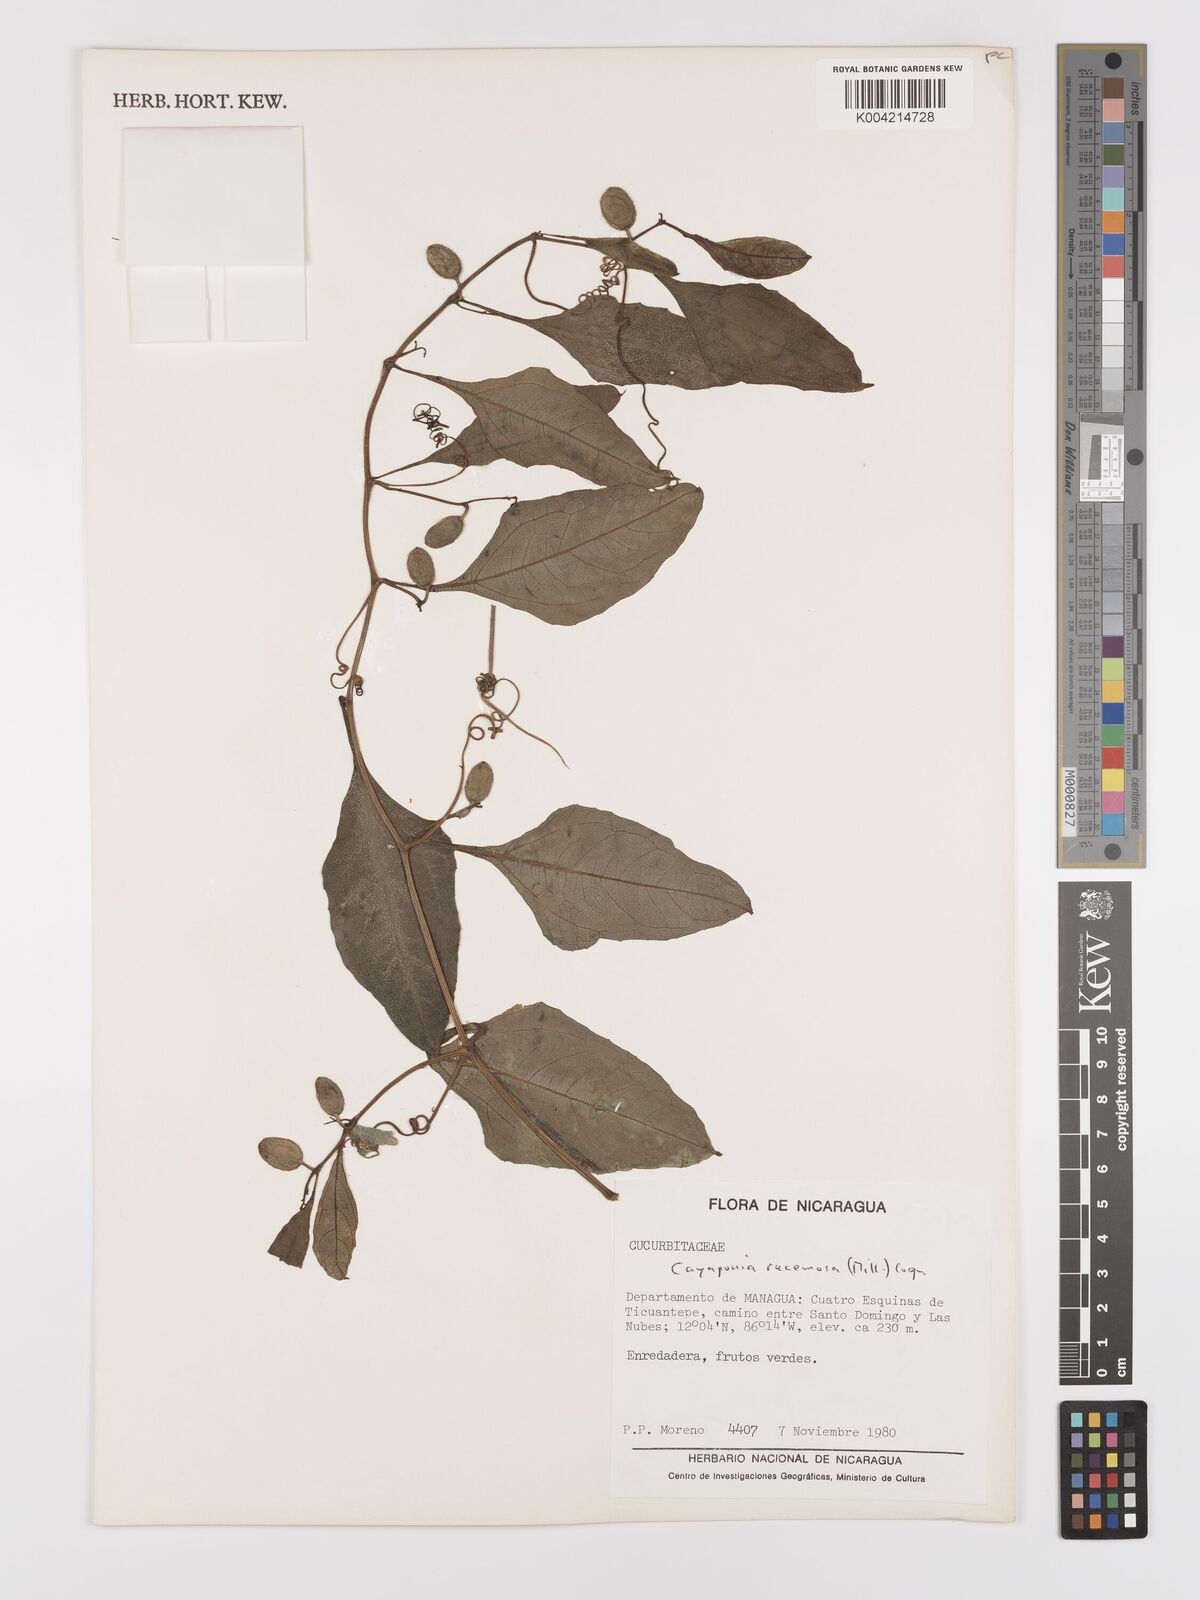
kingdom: Plantae
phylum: Tracheophyta
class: Magnoliopsida
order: Cucurbitales
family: Cucurbitaceae
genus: Cayaponia
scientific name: Cayaponia racemosa
